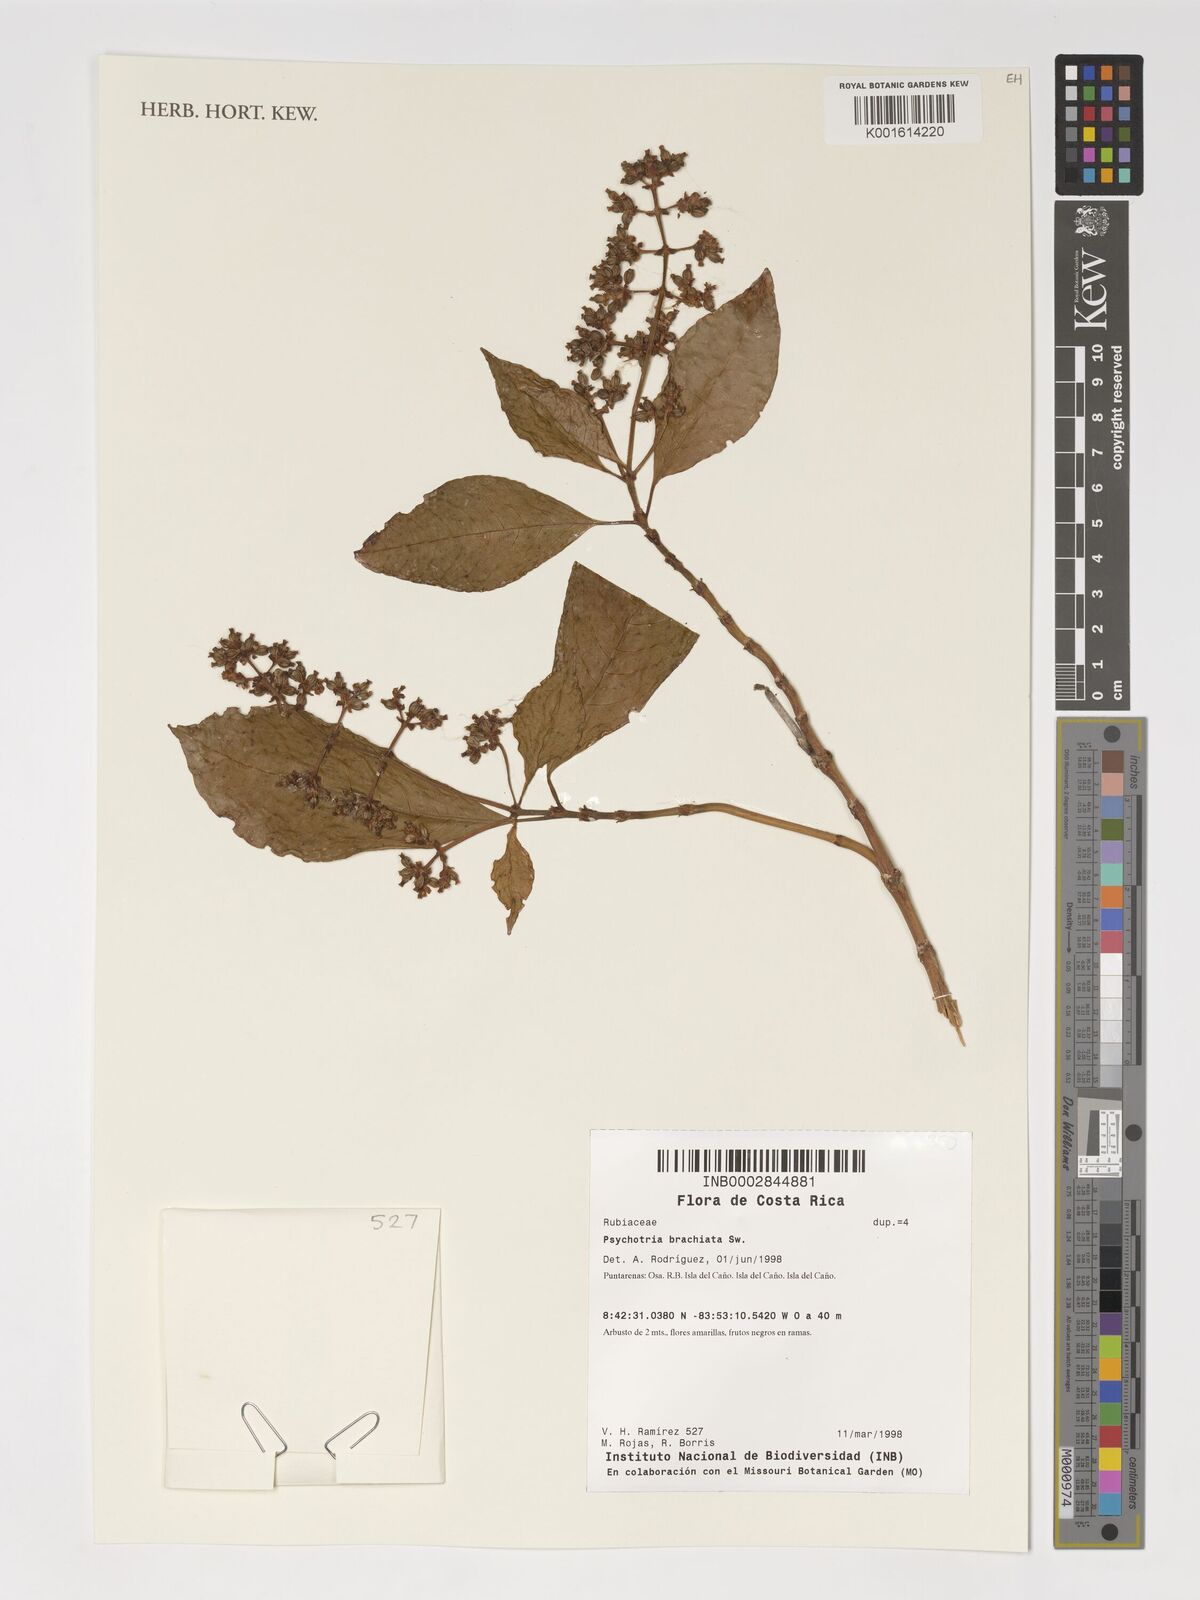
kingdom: Plantae
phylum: Tracheophyta
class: Magnoliopsida
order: Gentianales
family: Rubiaceae
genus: Palicourea
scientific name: Palicourea brachiata
